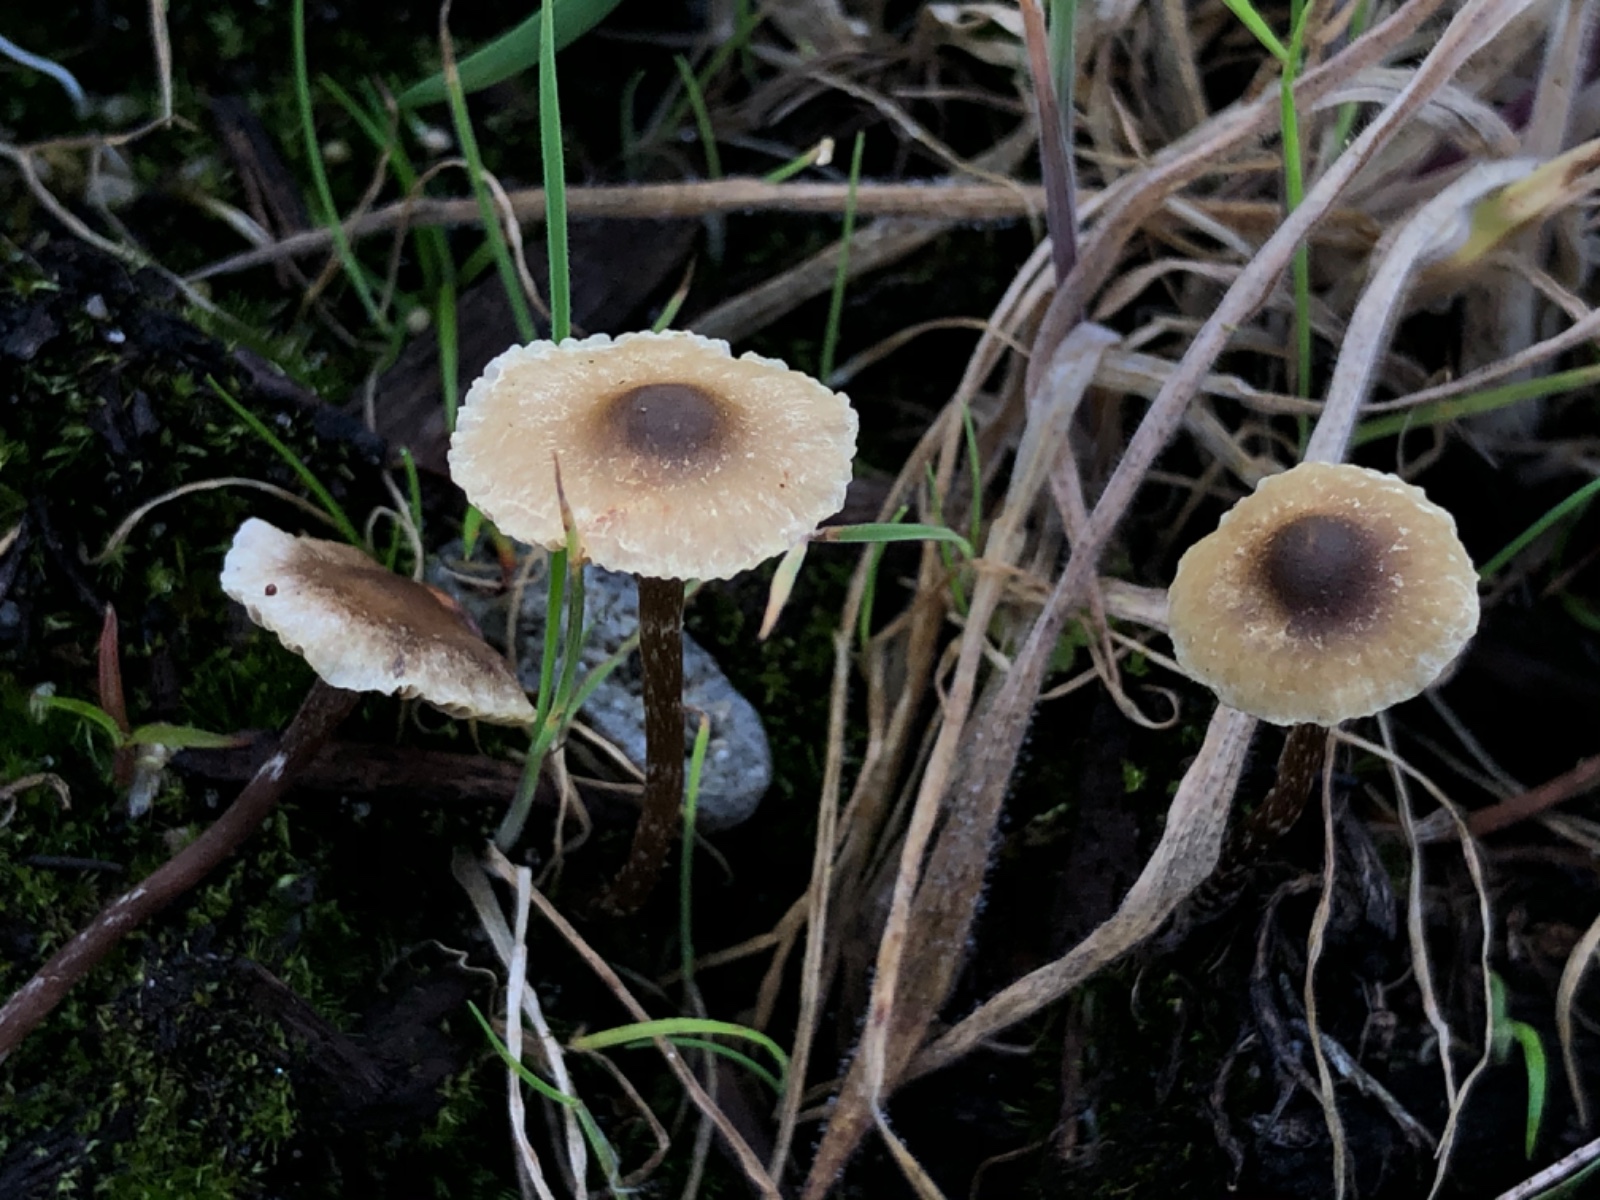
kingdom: Fungi
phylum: Basidiomycota
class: Agaricomycetes
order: Agaricales
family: Strophariaceae
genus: Hypholoma
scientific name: Hypholoma elongatum
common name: slank svovlhat
